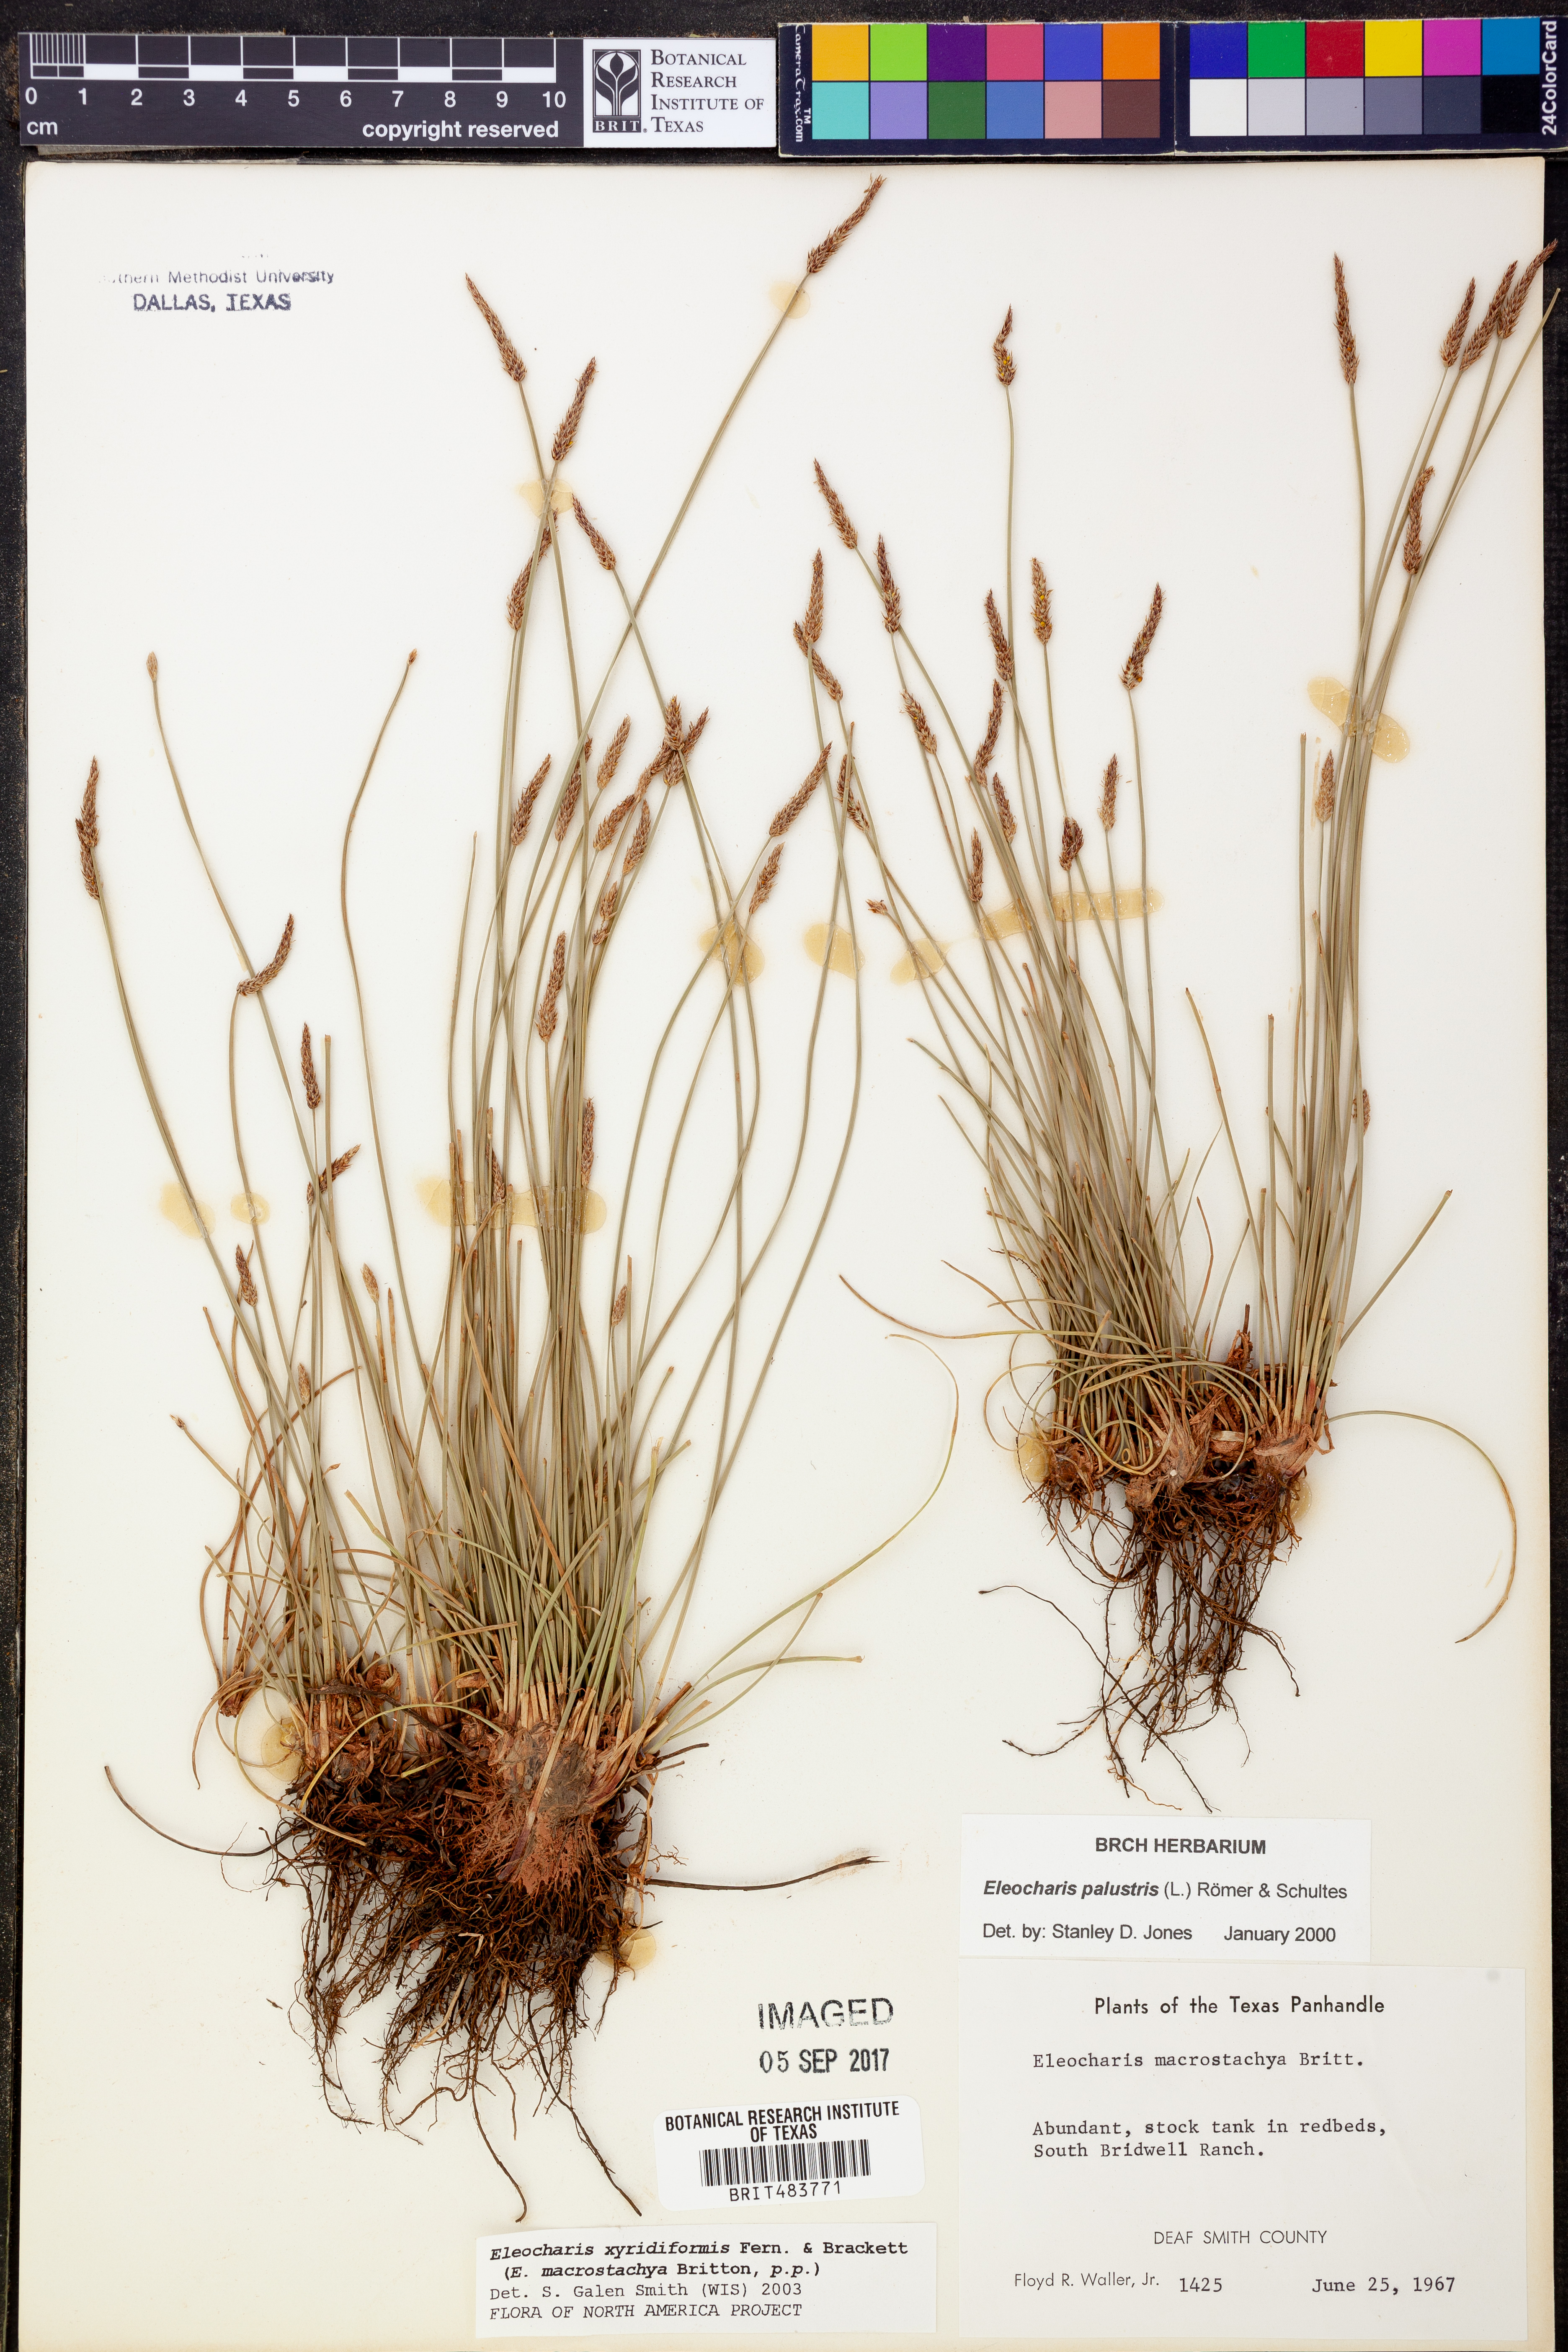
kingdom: Plantae
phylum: Tracheophyta
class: Liliopsida
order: Poales
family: Cyperaceae
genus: Eleocharis
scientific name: Eleocharis macrostachya
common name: Pale spikerush
